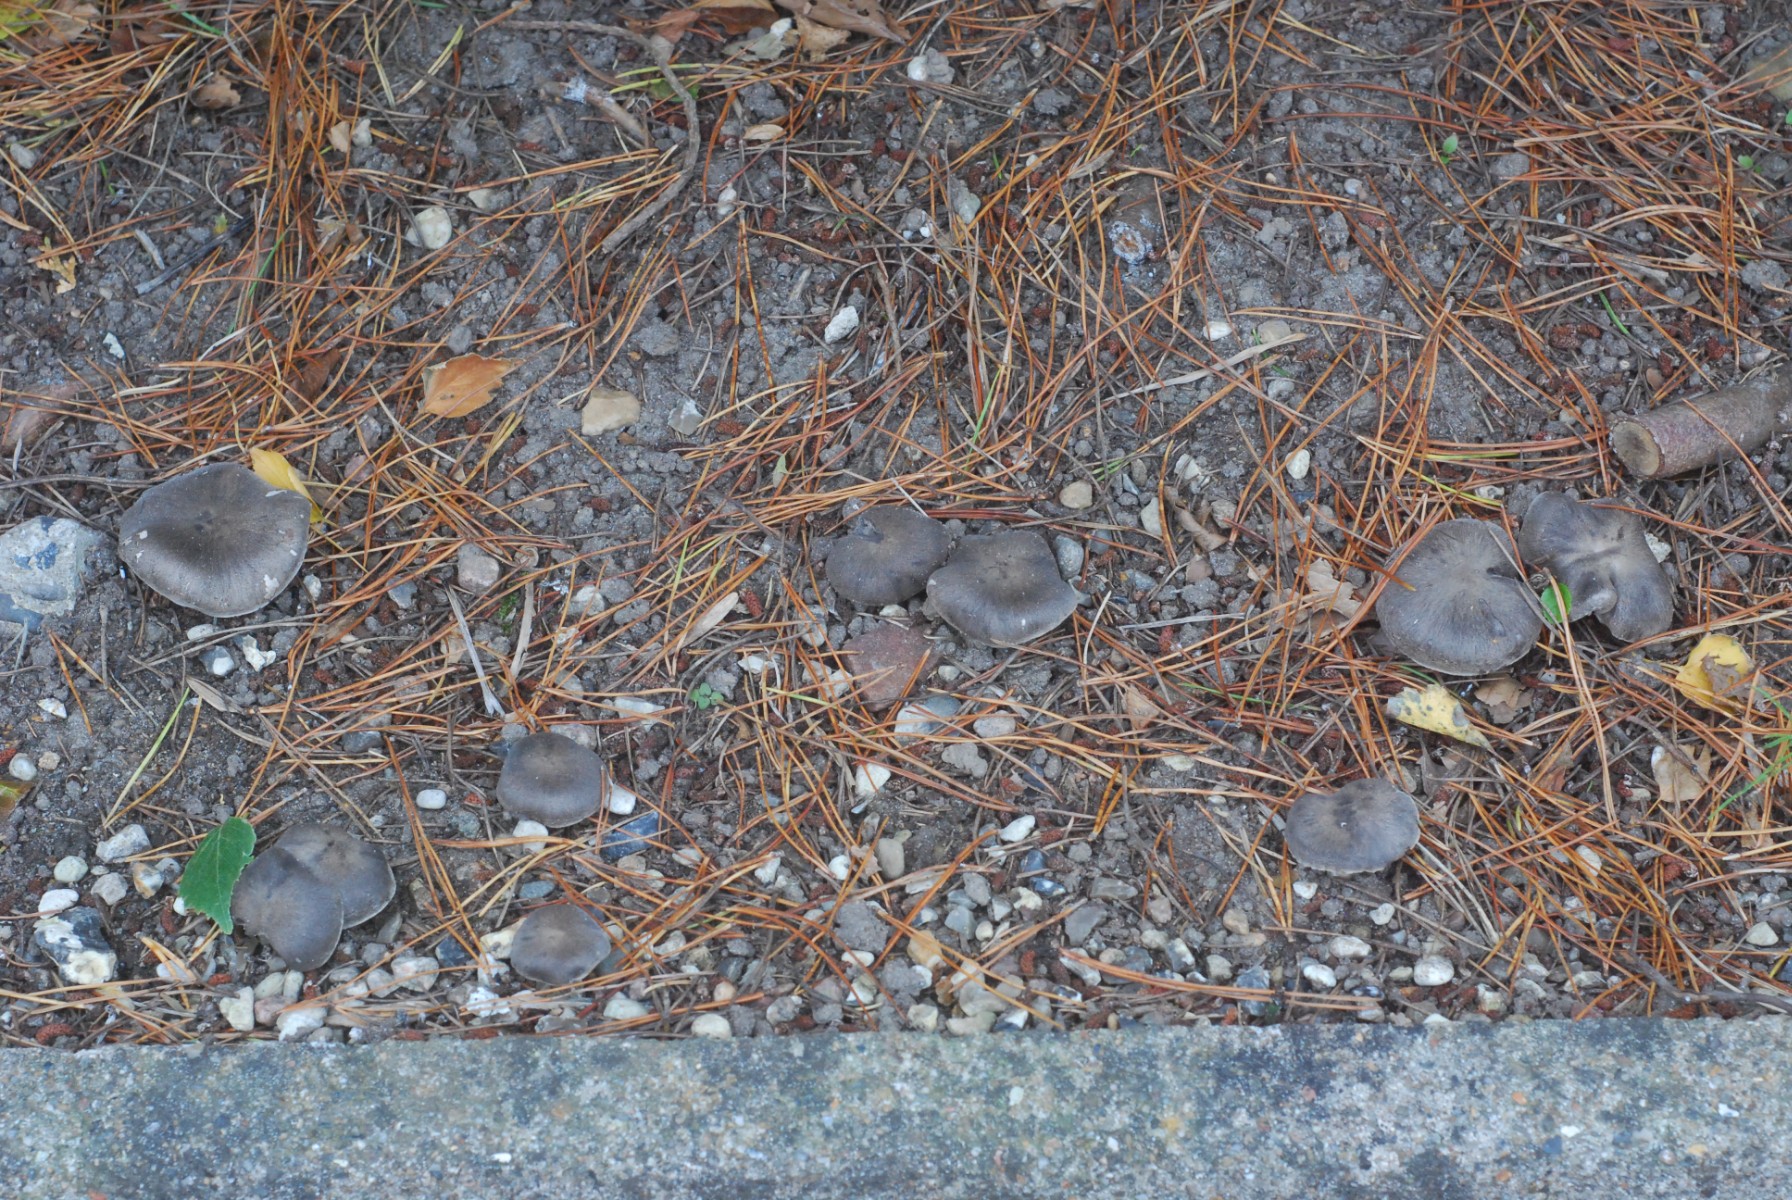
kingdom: Fungi
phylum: Basidiomycota
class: Agaricomycetes
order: Agaricales
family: Tricholomataceae
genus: Tricholoma
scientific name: Tricholoma terreum
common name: jordfarvet ridderhat
